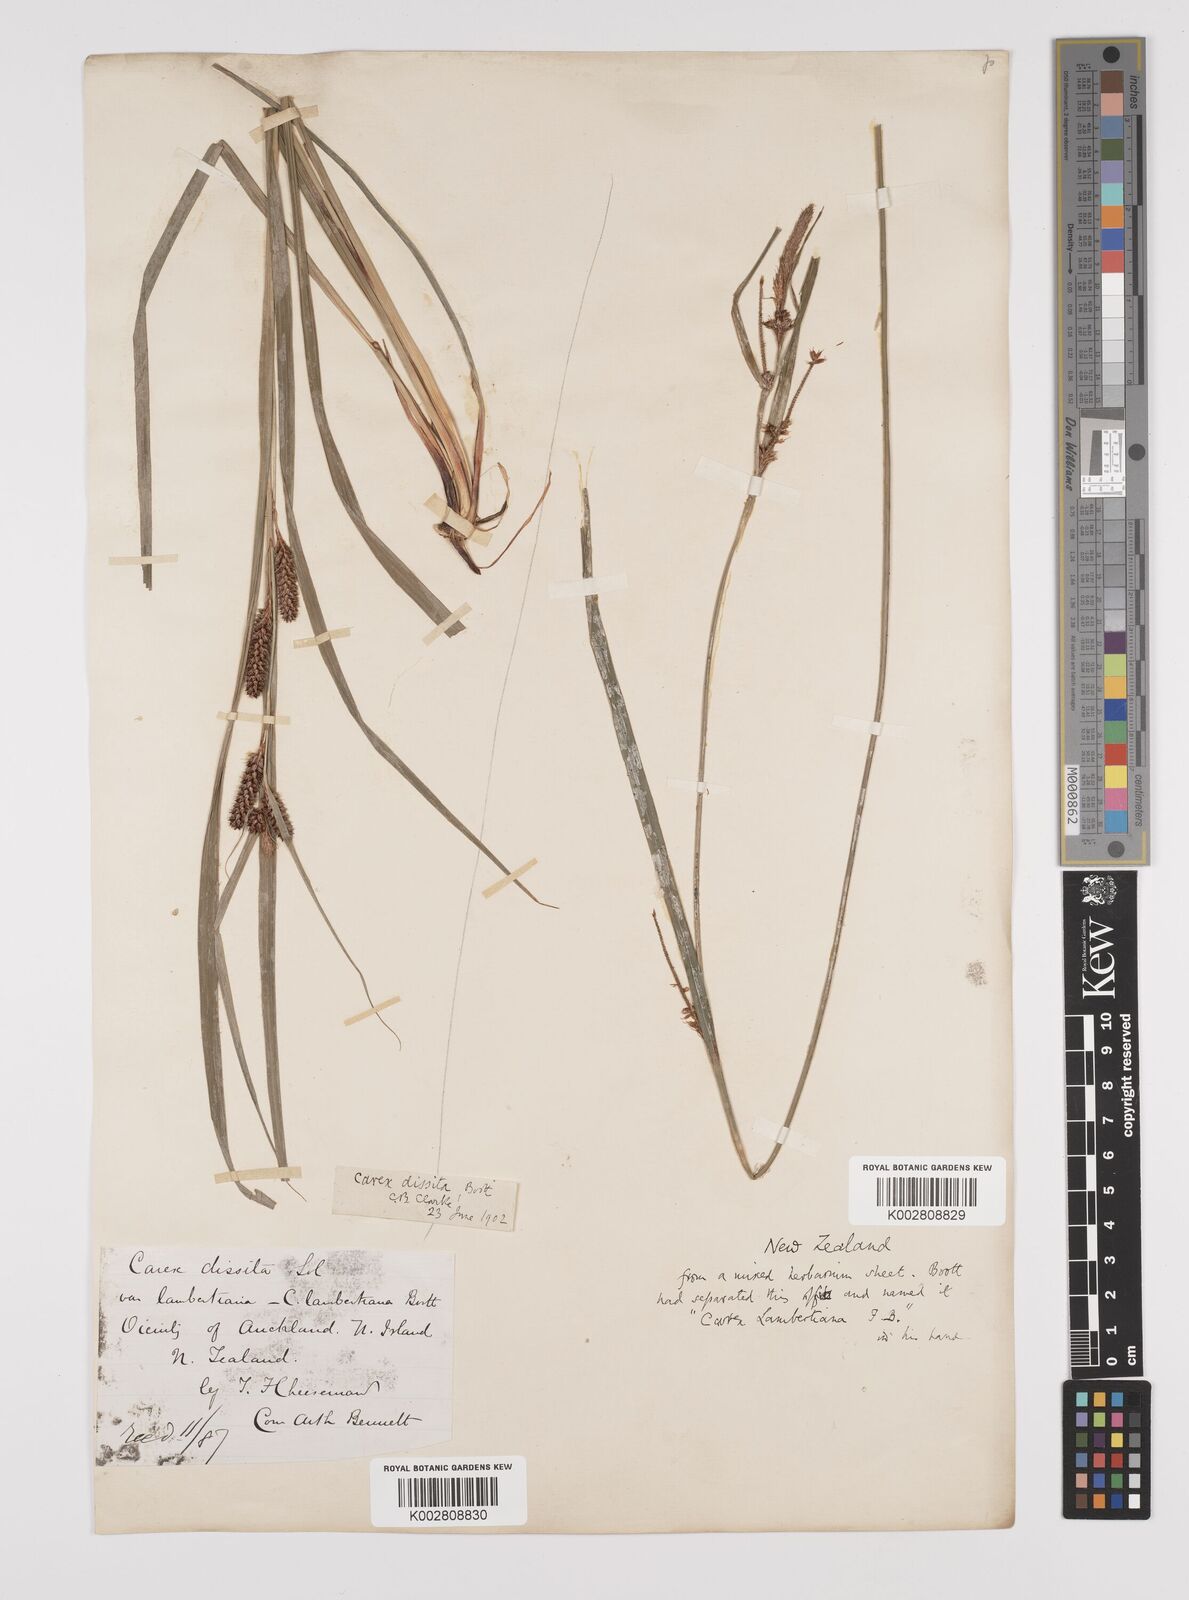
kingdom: Plantae
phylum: Tracheophyta
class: Liliopsida
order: Poales
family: Cyperaceae
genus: Carex
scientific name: Carex dissita
